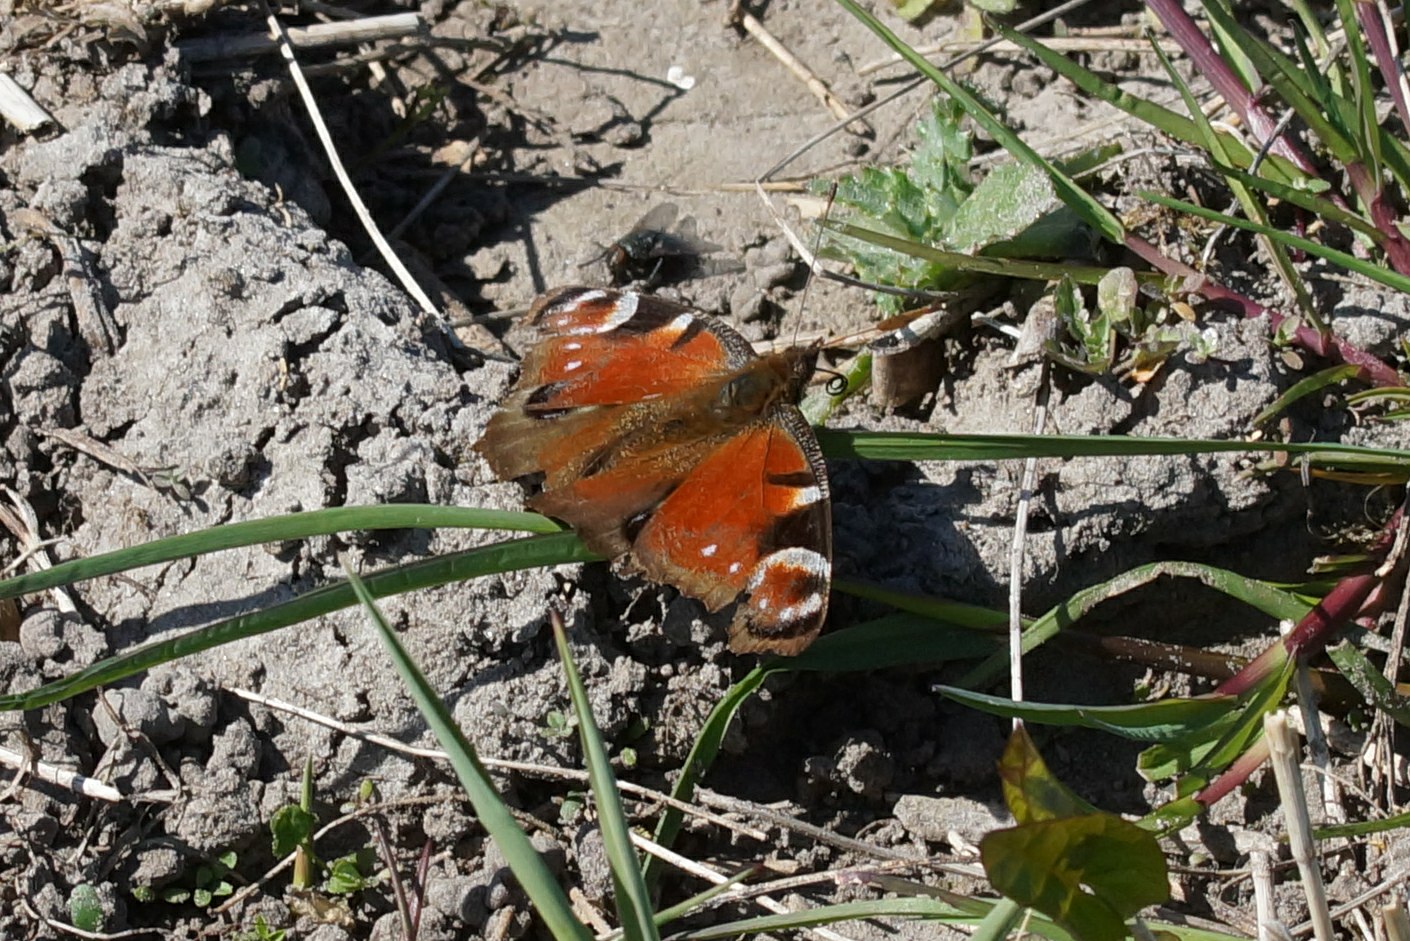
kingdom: Animalia
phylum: Arthropoda
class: Insecta
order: Lepidoptera
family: Nymphalidae
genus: Aglais
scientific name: Aglais io
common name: Dagpåfugleøje
